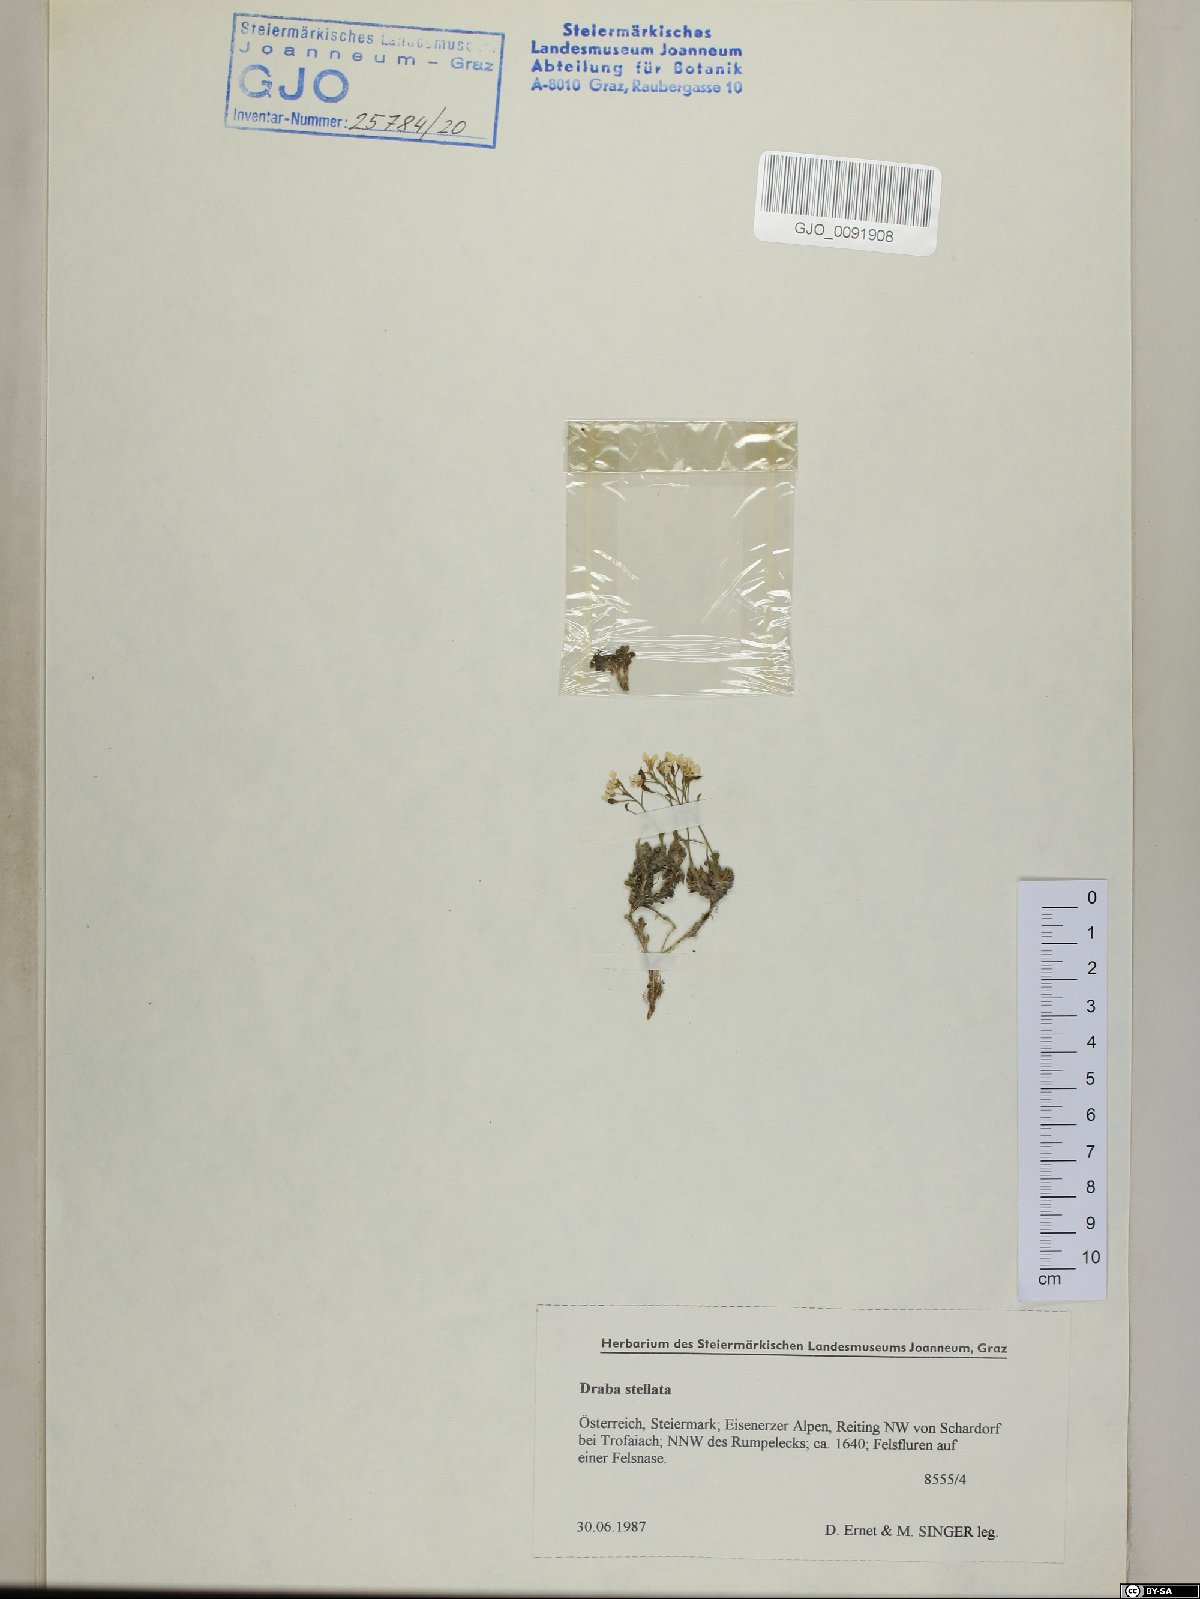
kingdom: Plantae
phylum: Tracheophyta
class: Magnoliopsida
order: Brassicales
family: Brassicaceae
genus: Draba
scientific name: Draba stellata
